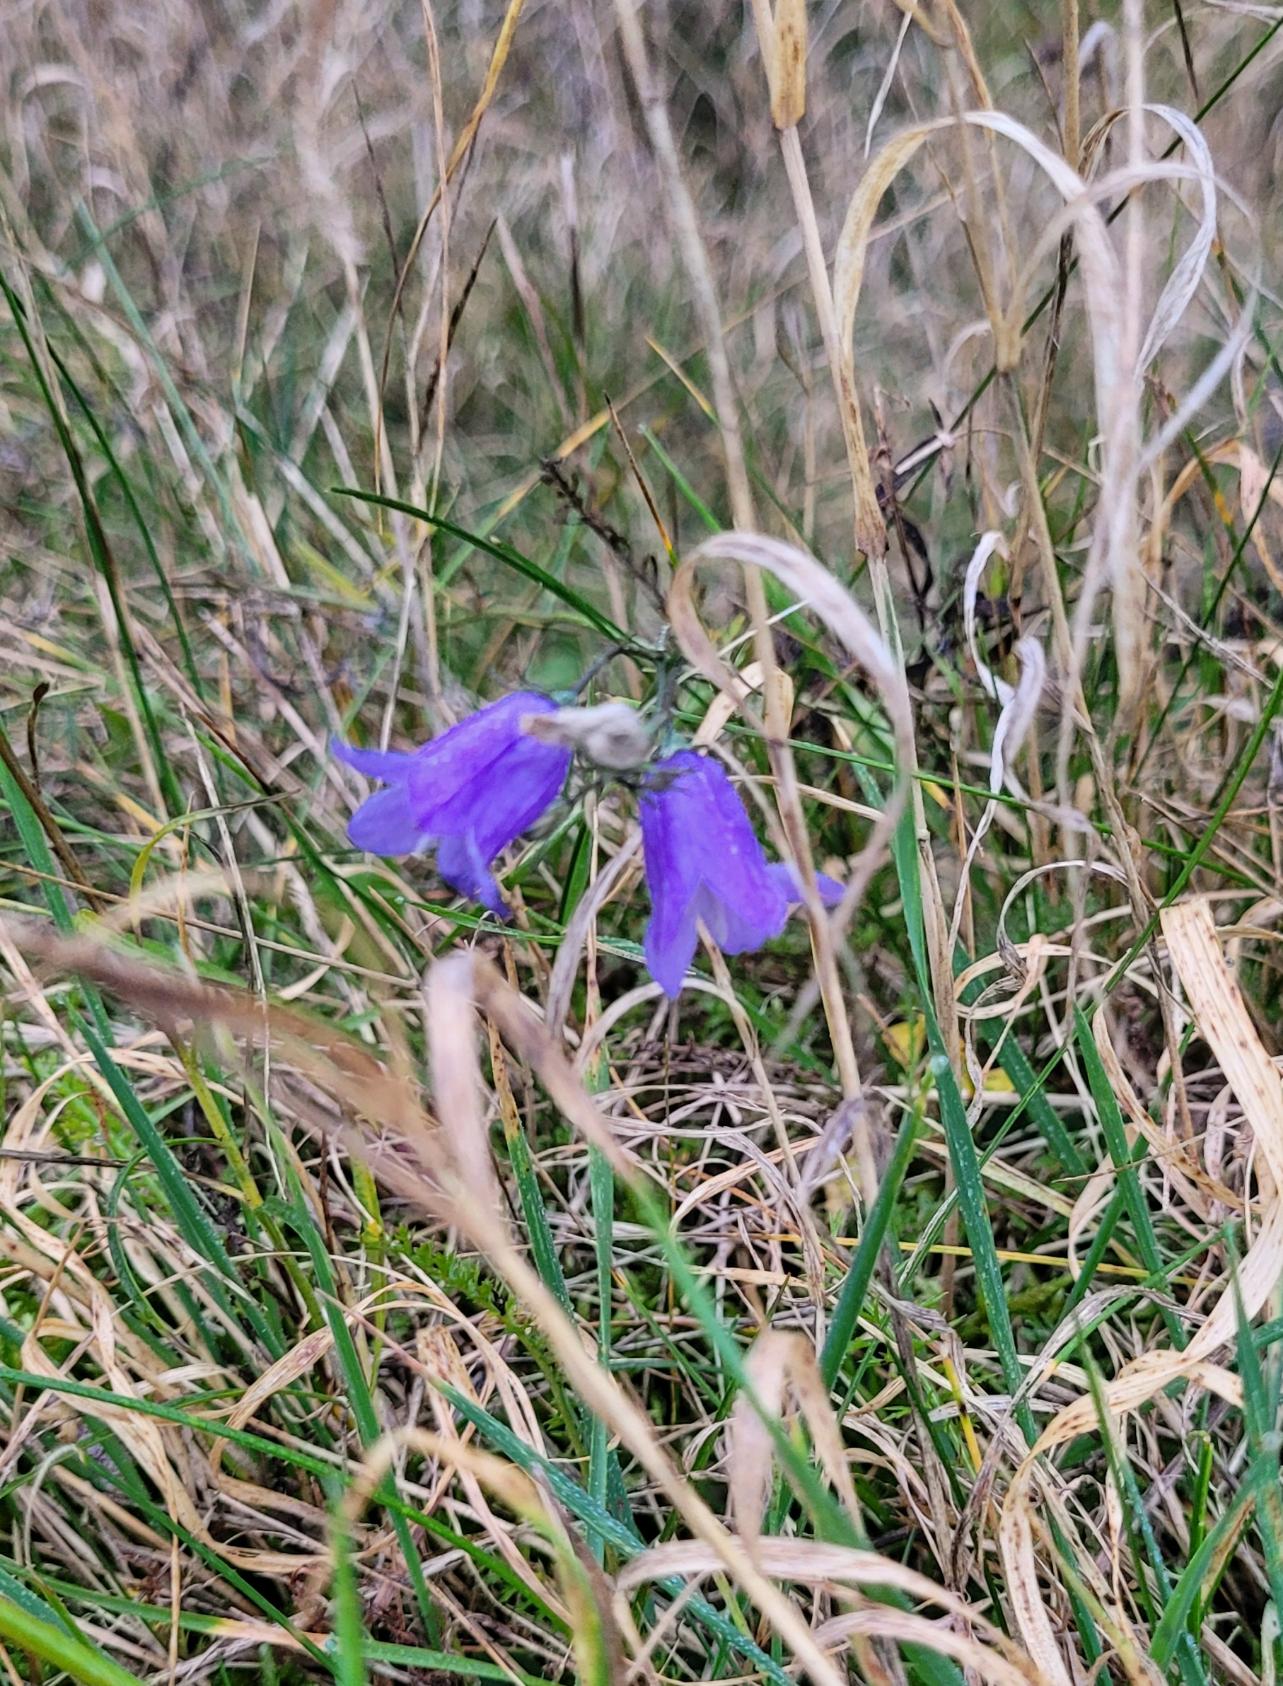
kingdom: Plantae
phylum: Tracheophyta
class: Magnoliopsida
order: Asterales
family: Campanulaceae
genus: Campanula
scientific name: Campanula rotundifolia
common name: Liden klokke
